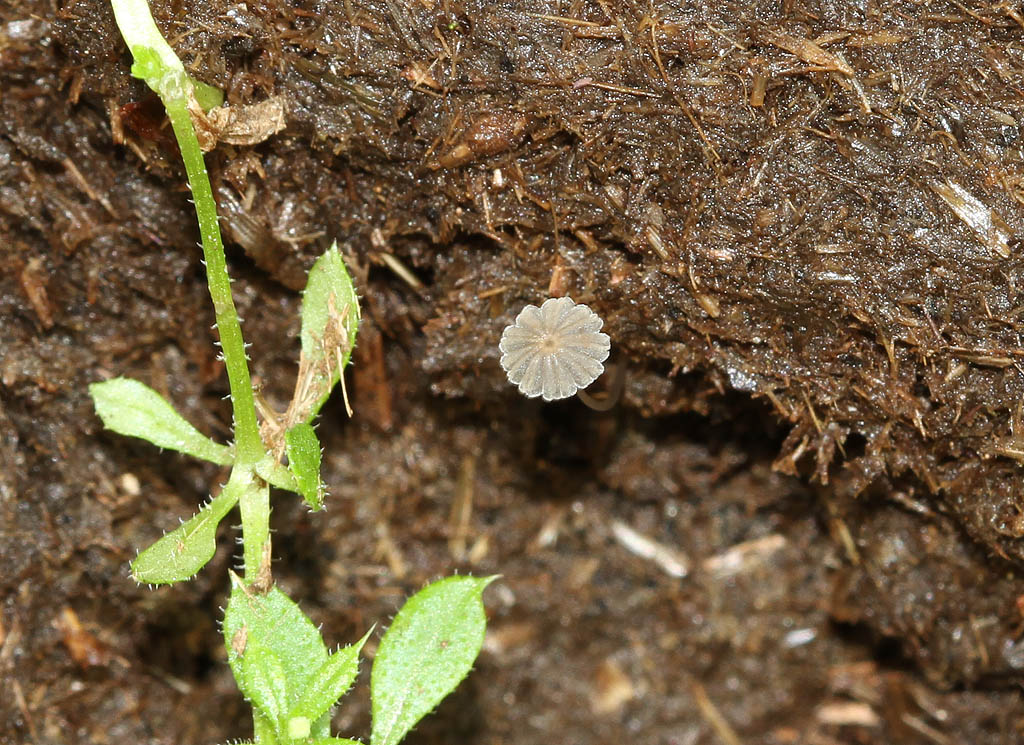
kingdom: Fungi
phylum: Basidiomycota
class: Agaricomycetes
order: Agaricales
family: Psathyrellaceae
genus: Parasola
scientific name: Parasola misera
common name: lillebitte hjulhat
